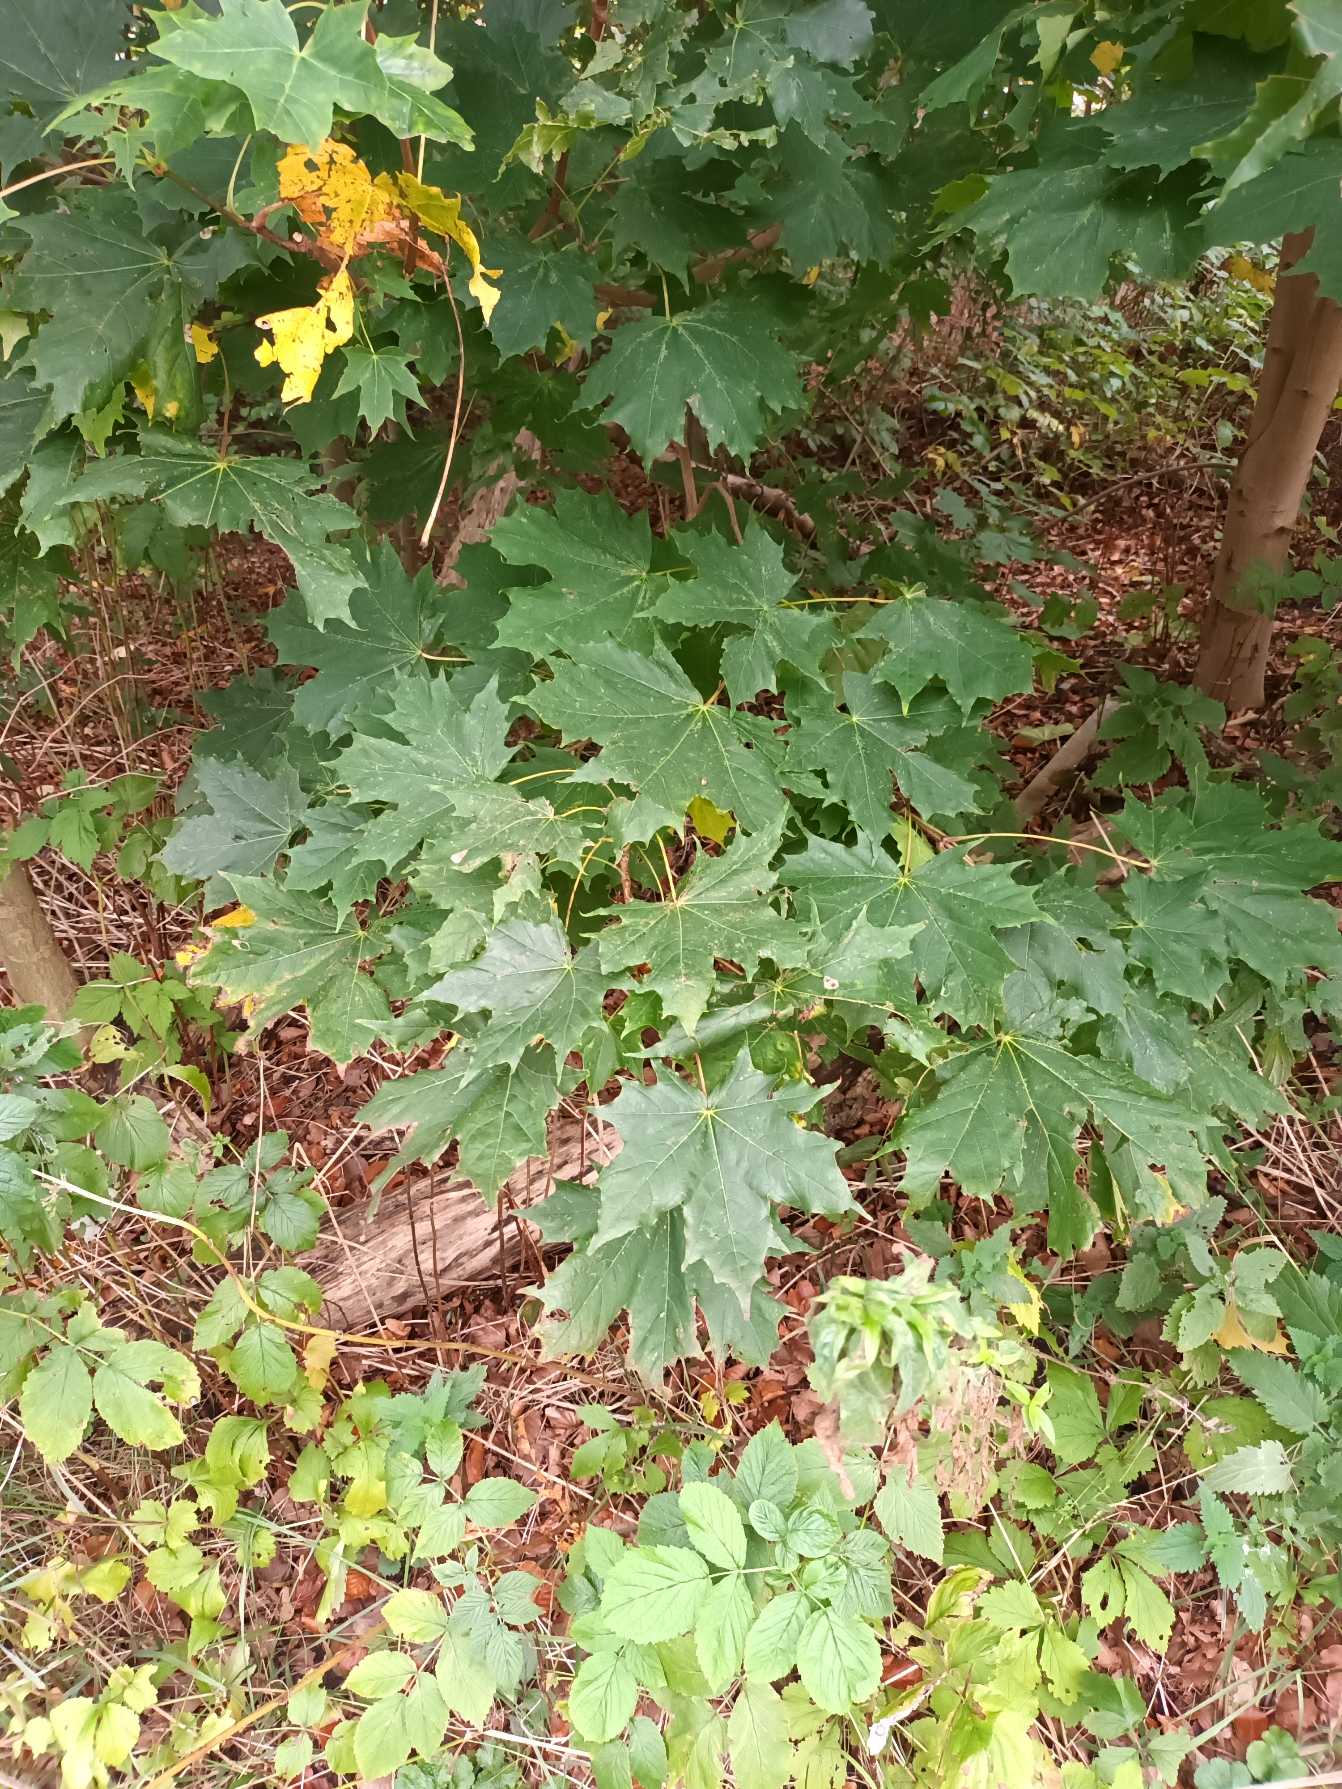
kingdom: Plantae
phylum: Tracheophyta
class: Magnoliopsida
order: Sapindales
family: Sapindaceae
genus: Acer
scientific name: Acer platanoides
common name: Spids-løn
